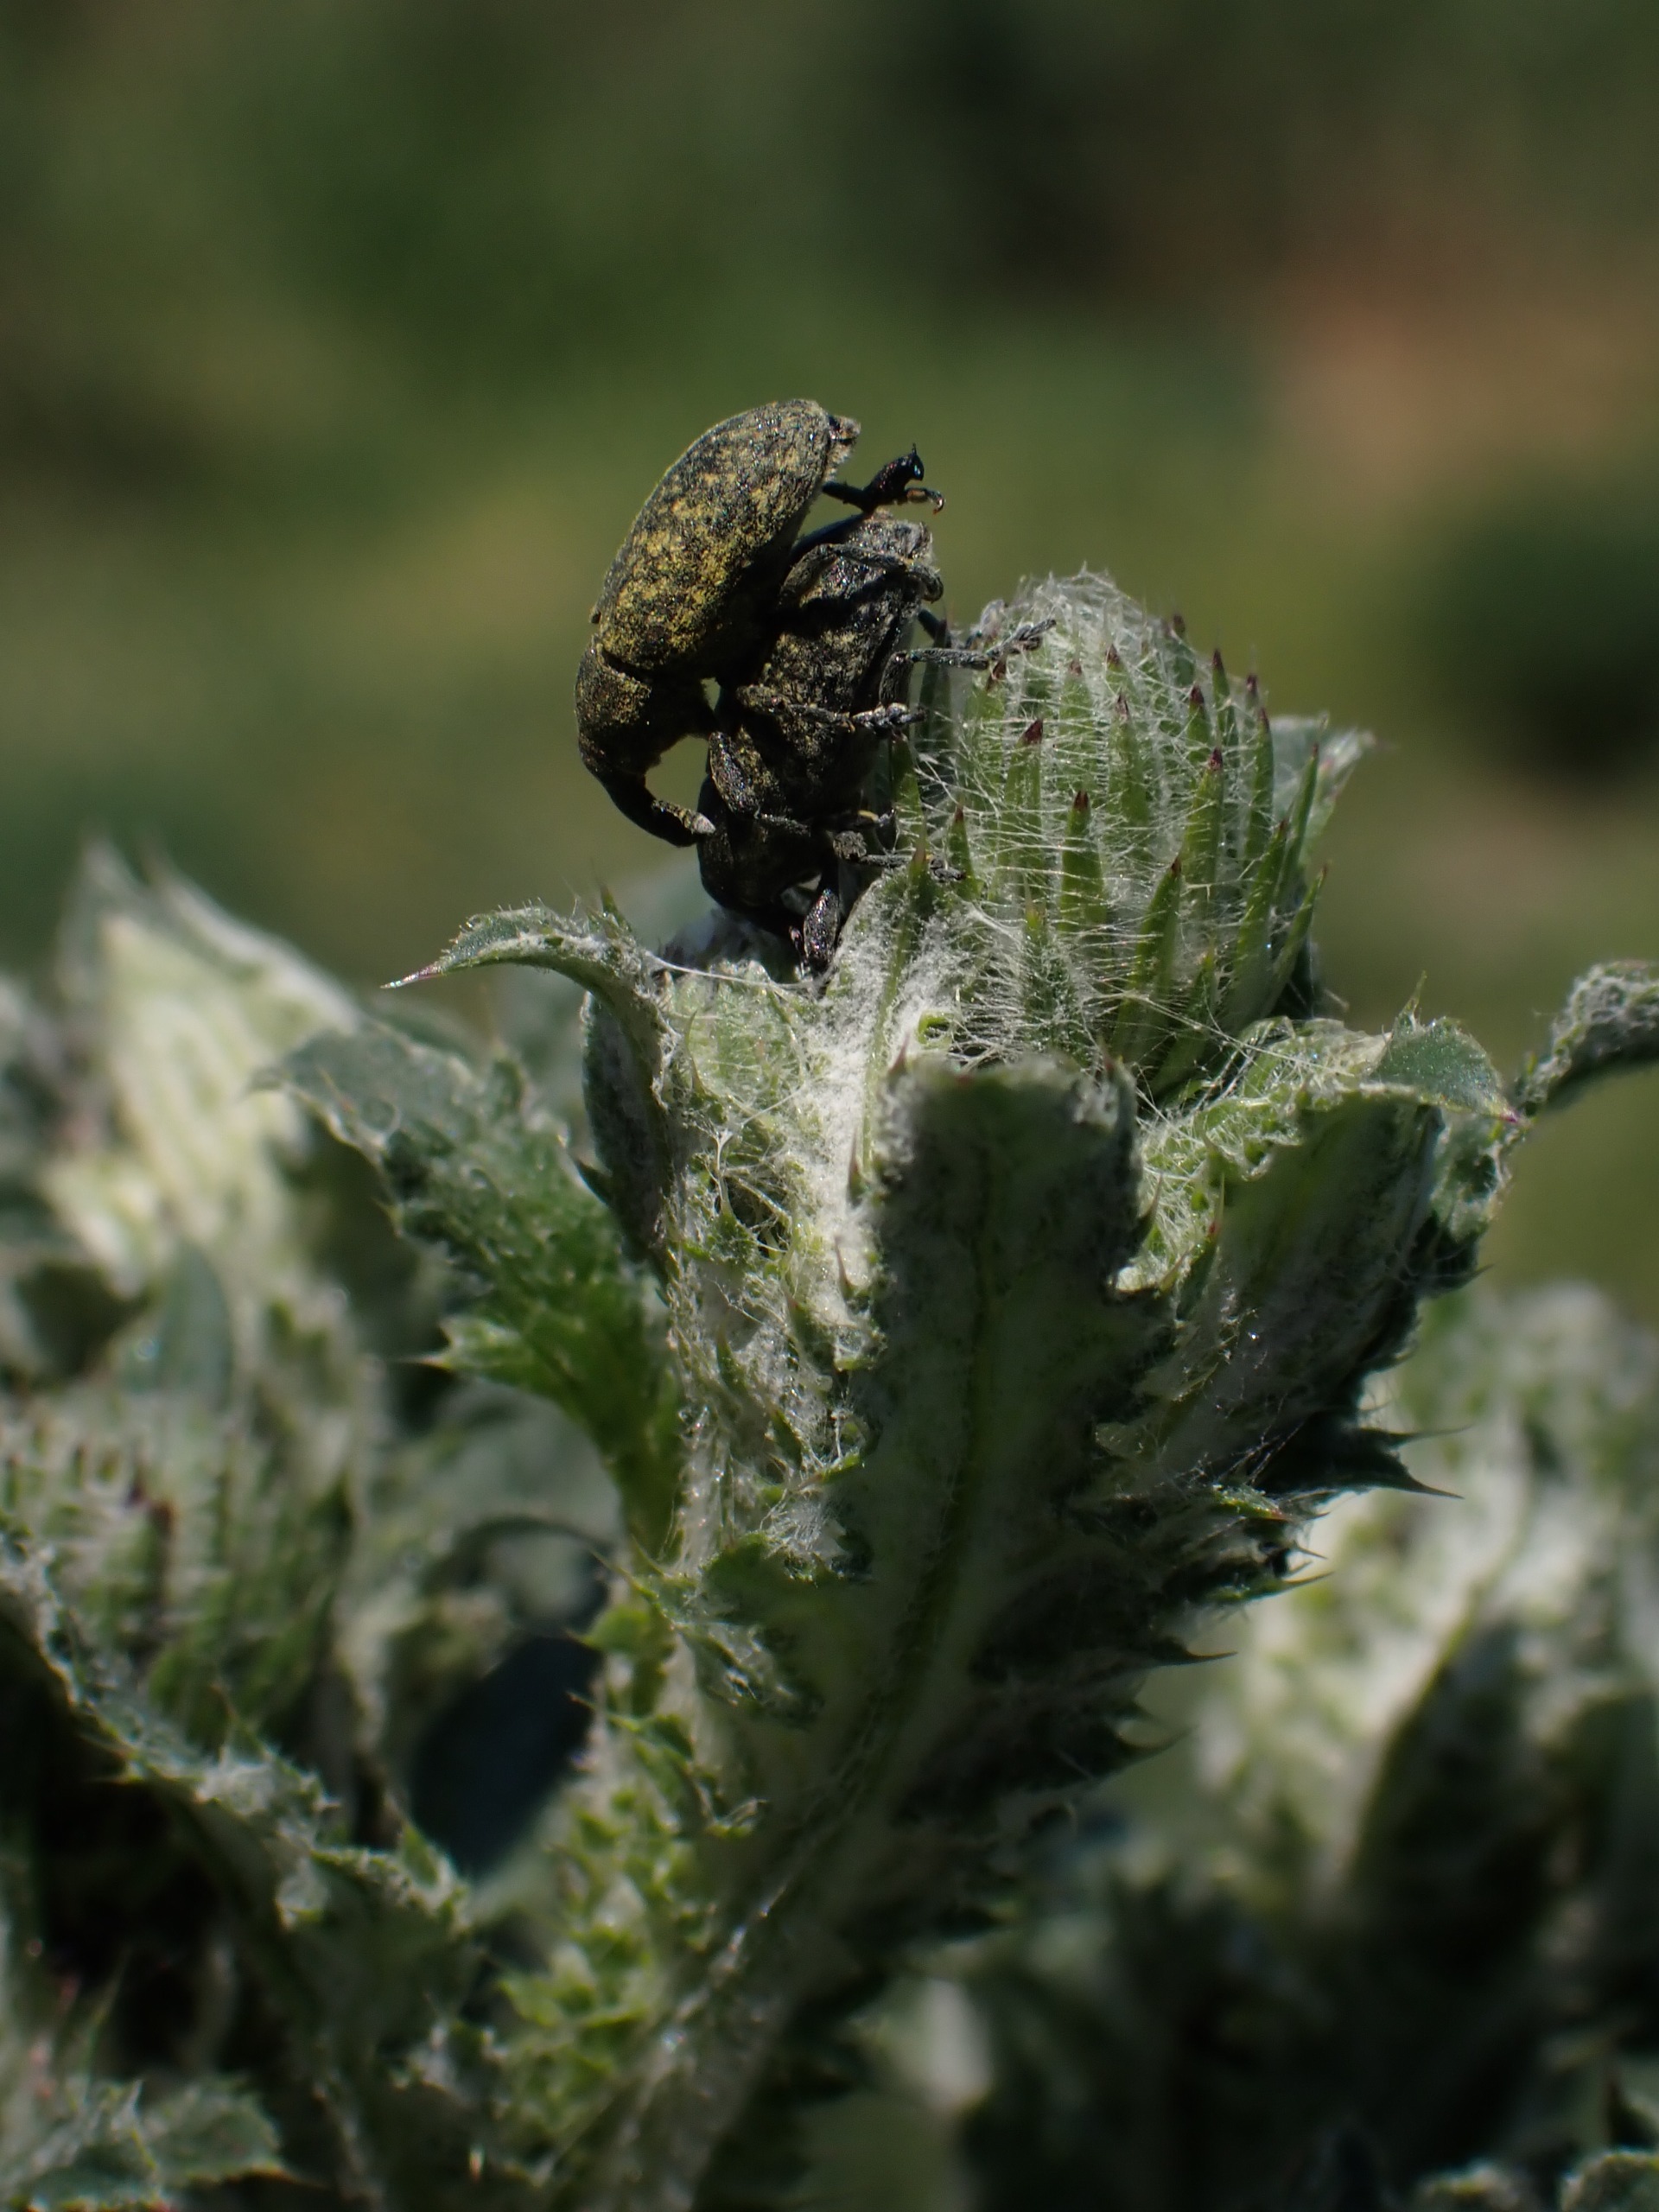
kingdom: Animalia
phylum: Arthropoda
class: Insecta
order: Coleoptera
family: Curculionidae
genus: Larinus
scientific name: Larinus carlinae
